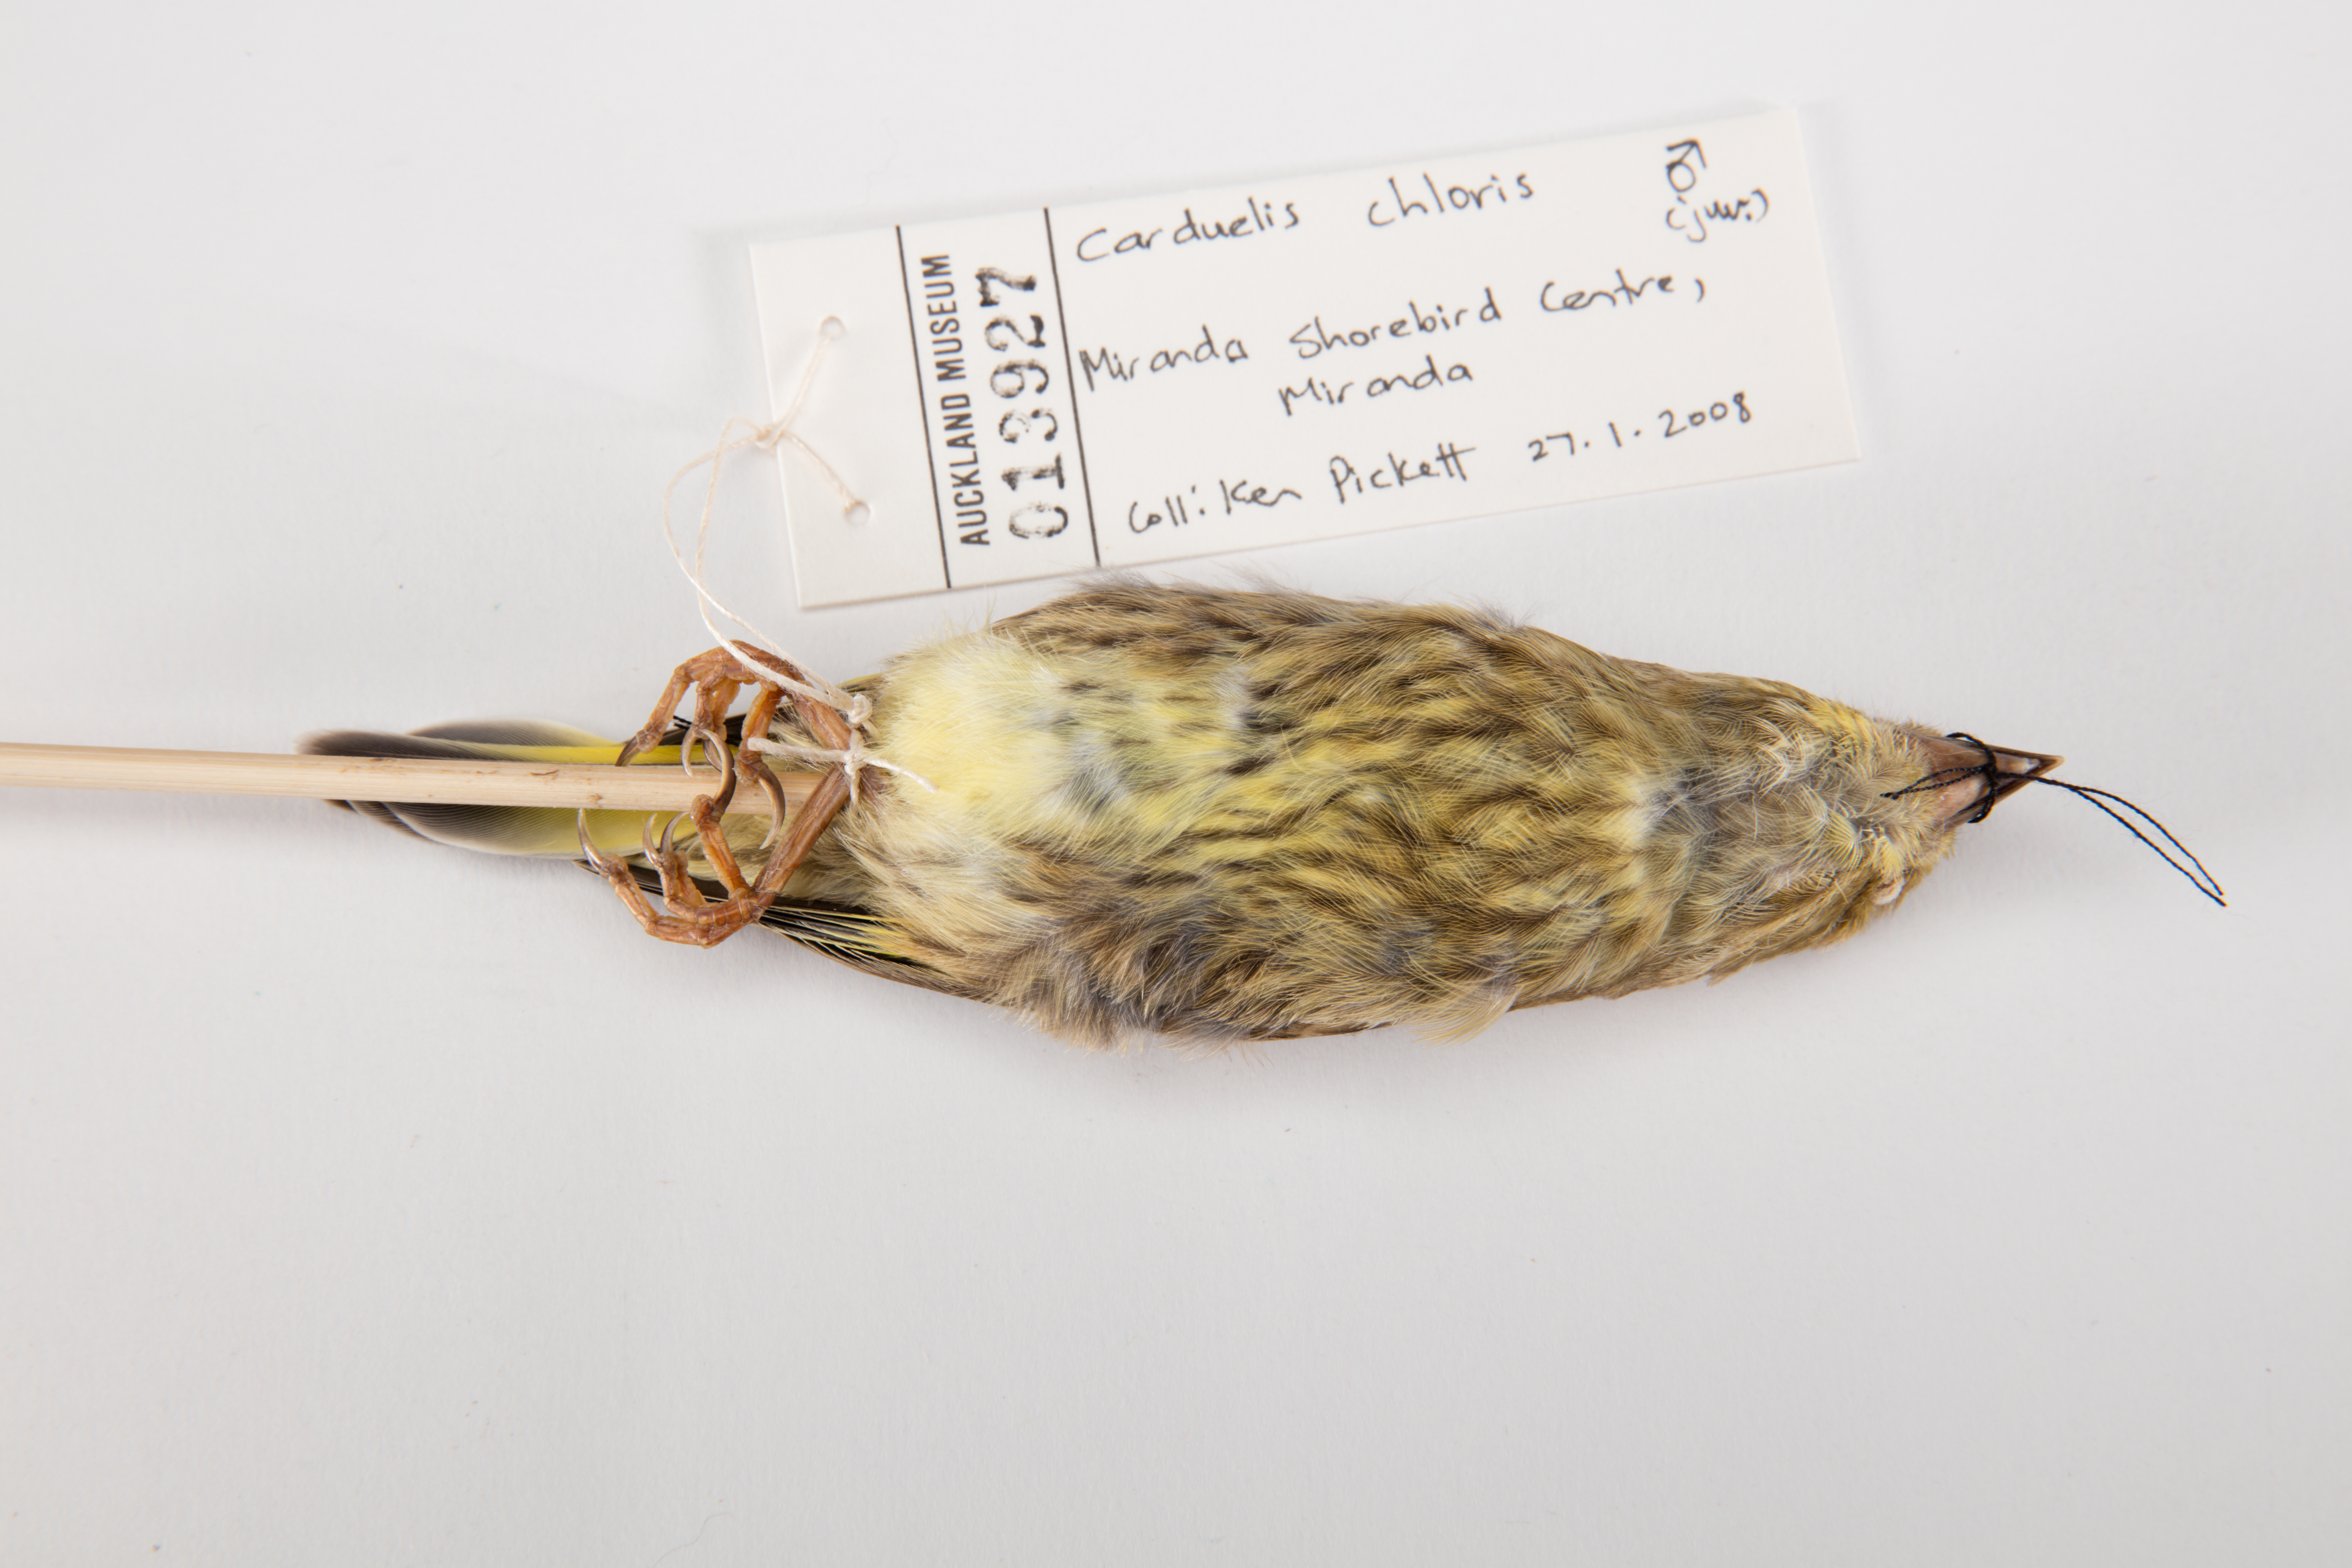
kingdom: Plantae
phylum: Tracheophyta
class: Liliopsida
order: Poales
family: Poaceae
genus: Chloris
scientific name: Chloris chloris
